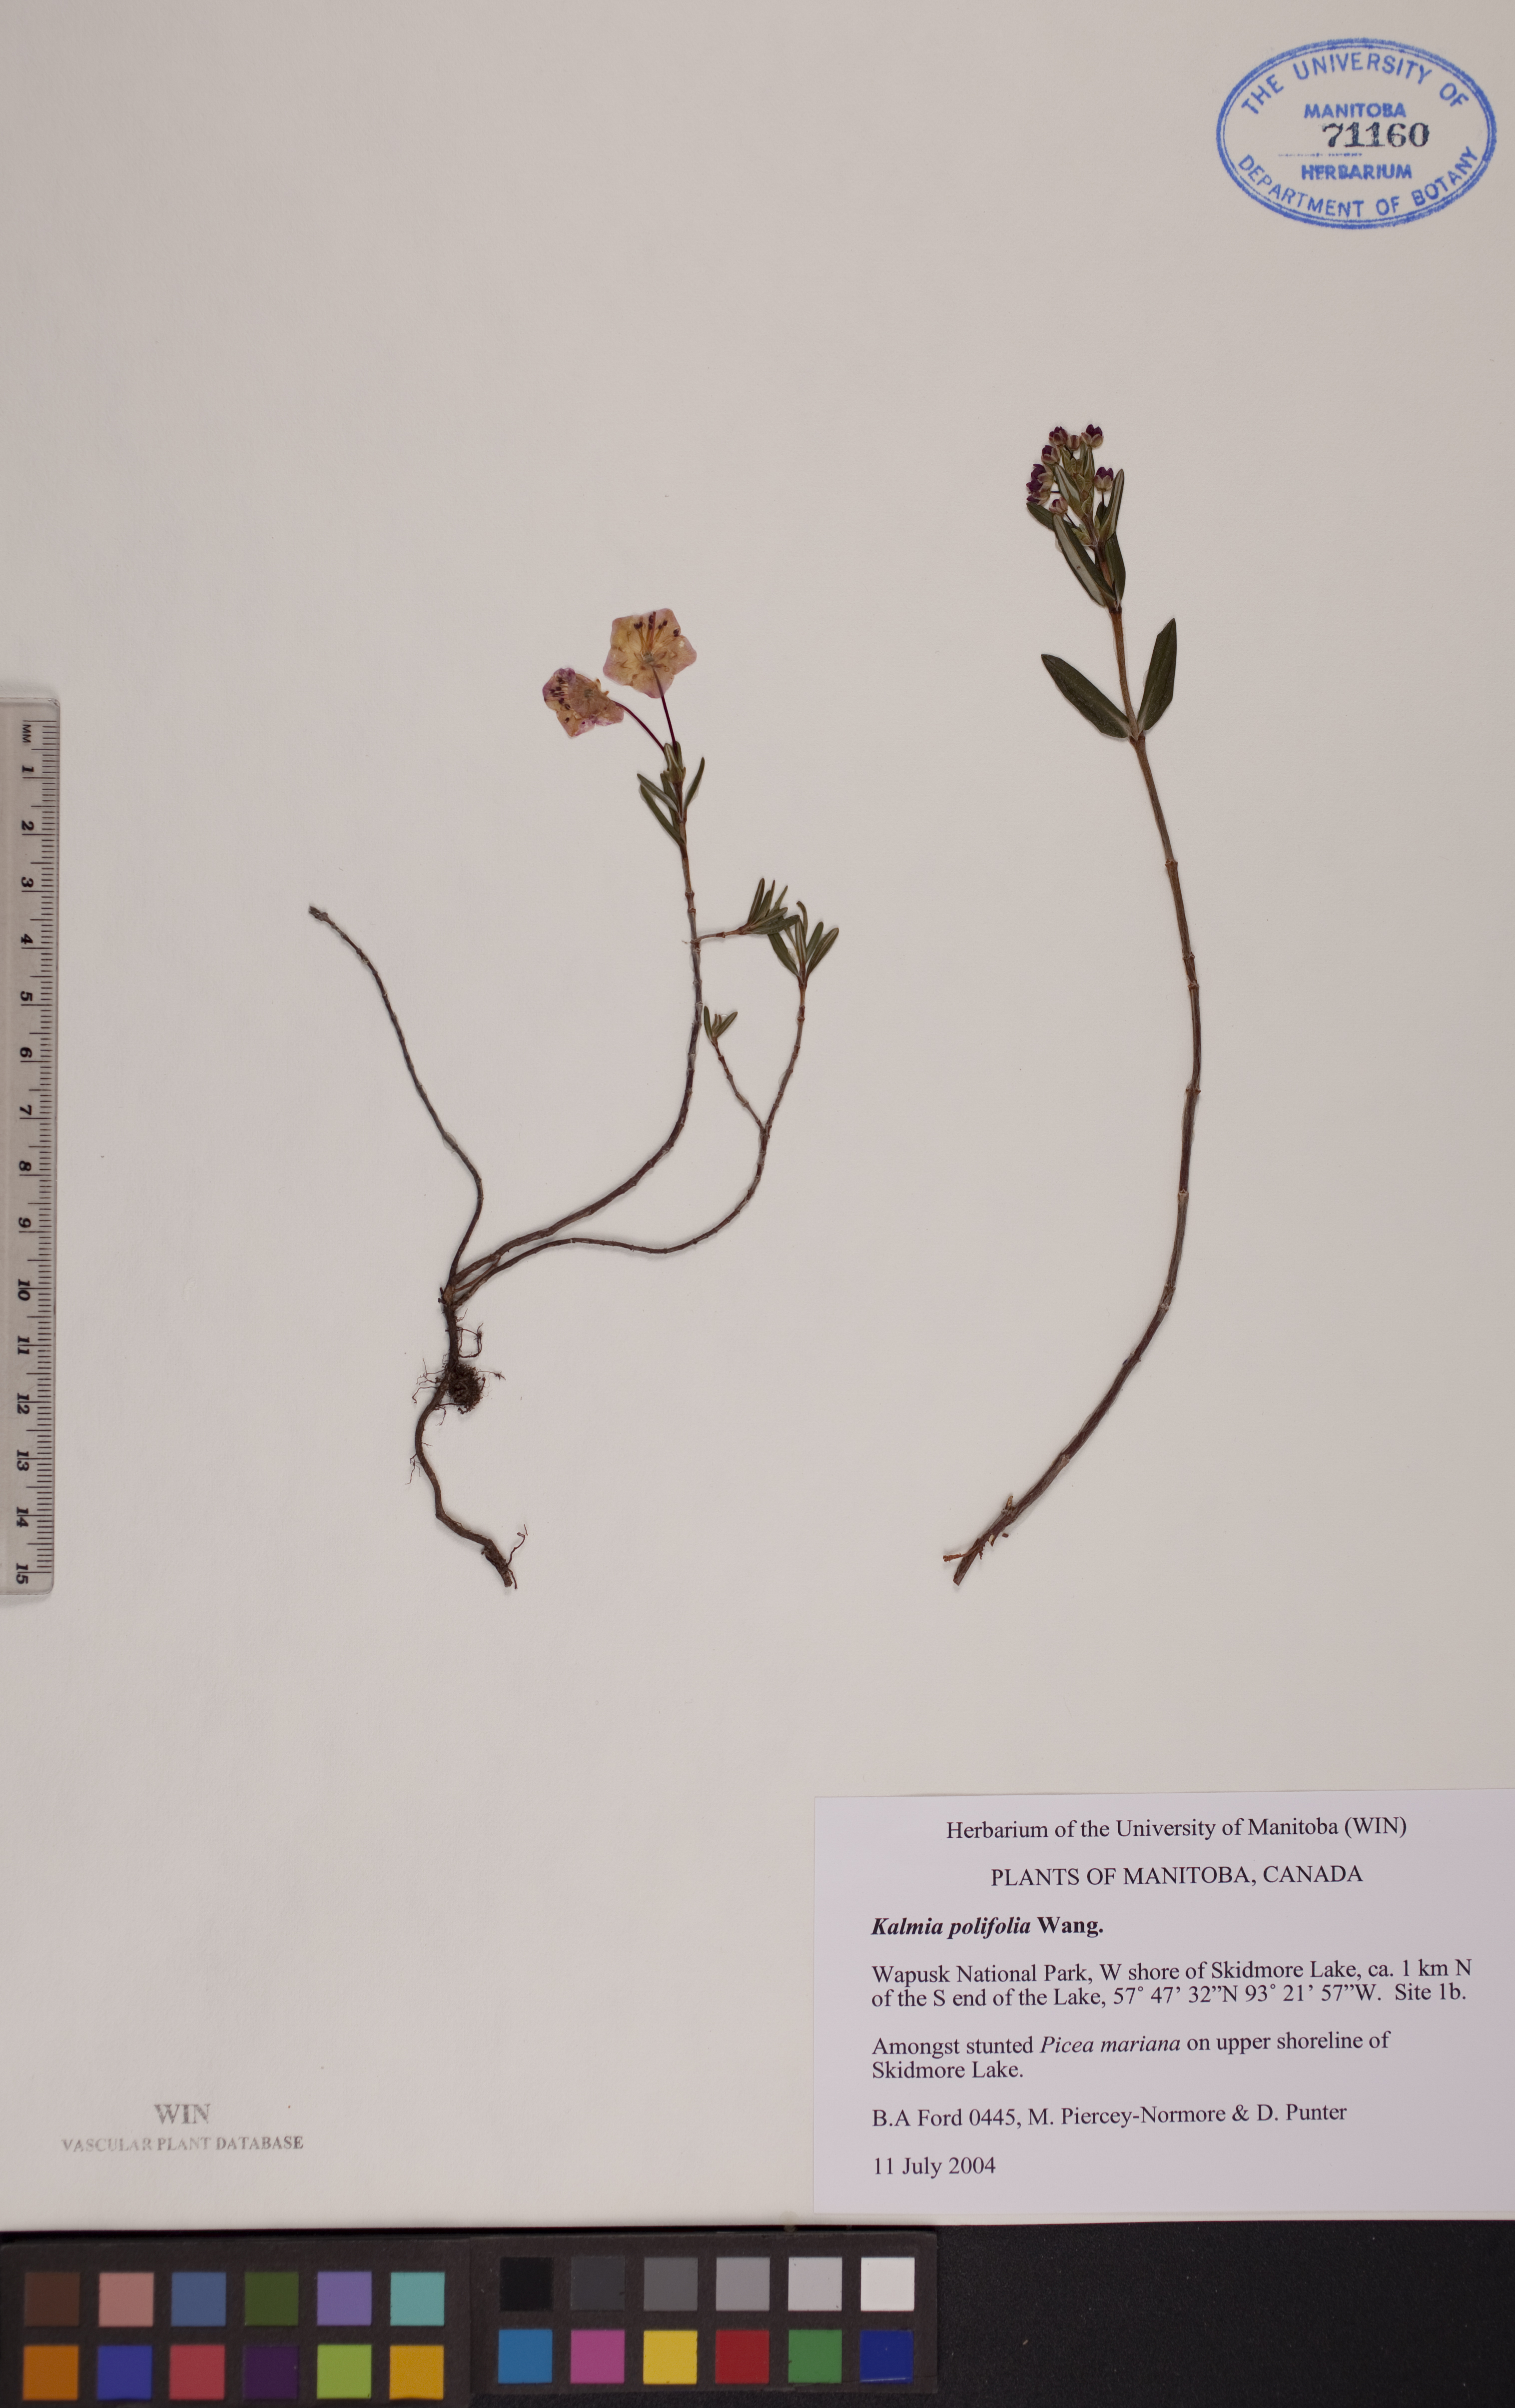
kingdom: Plantae
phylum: Tracheophyta
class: Magnoliopsida
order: Ericales
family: Ericaceae
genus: Kalmia
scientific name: Kalmia polifolia
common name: Bog-laurel
